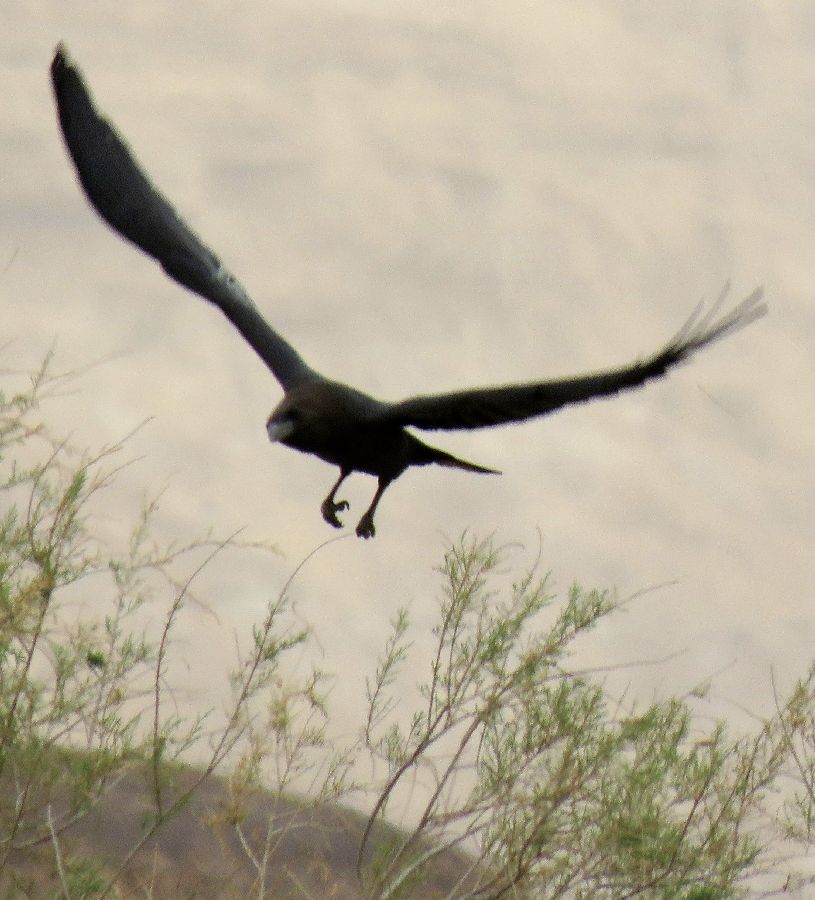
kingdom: Animalia
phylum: Chordata
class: Aves
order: Passeriformes
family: Corvidae
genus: Corvus
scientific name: Corvus ruficollis
